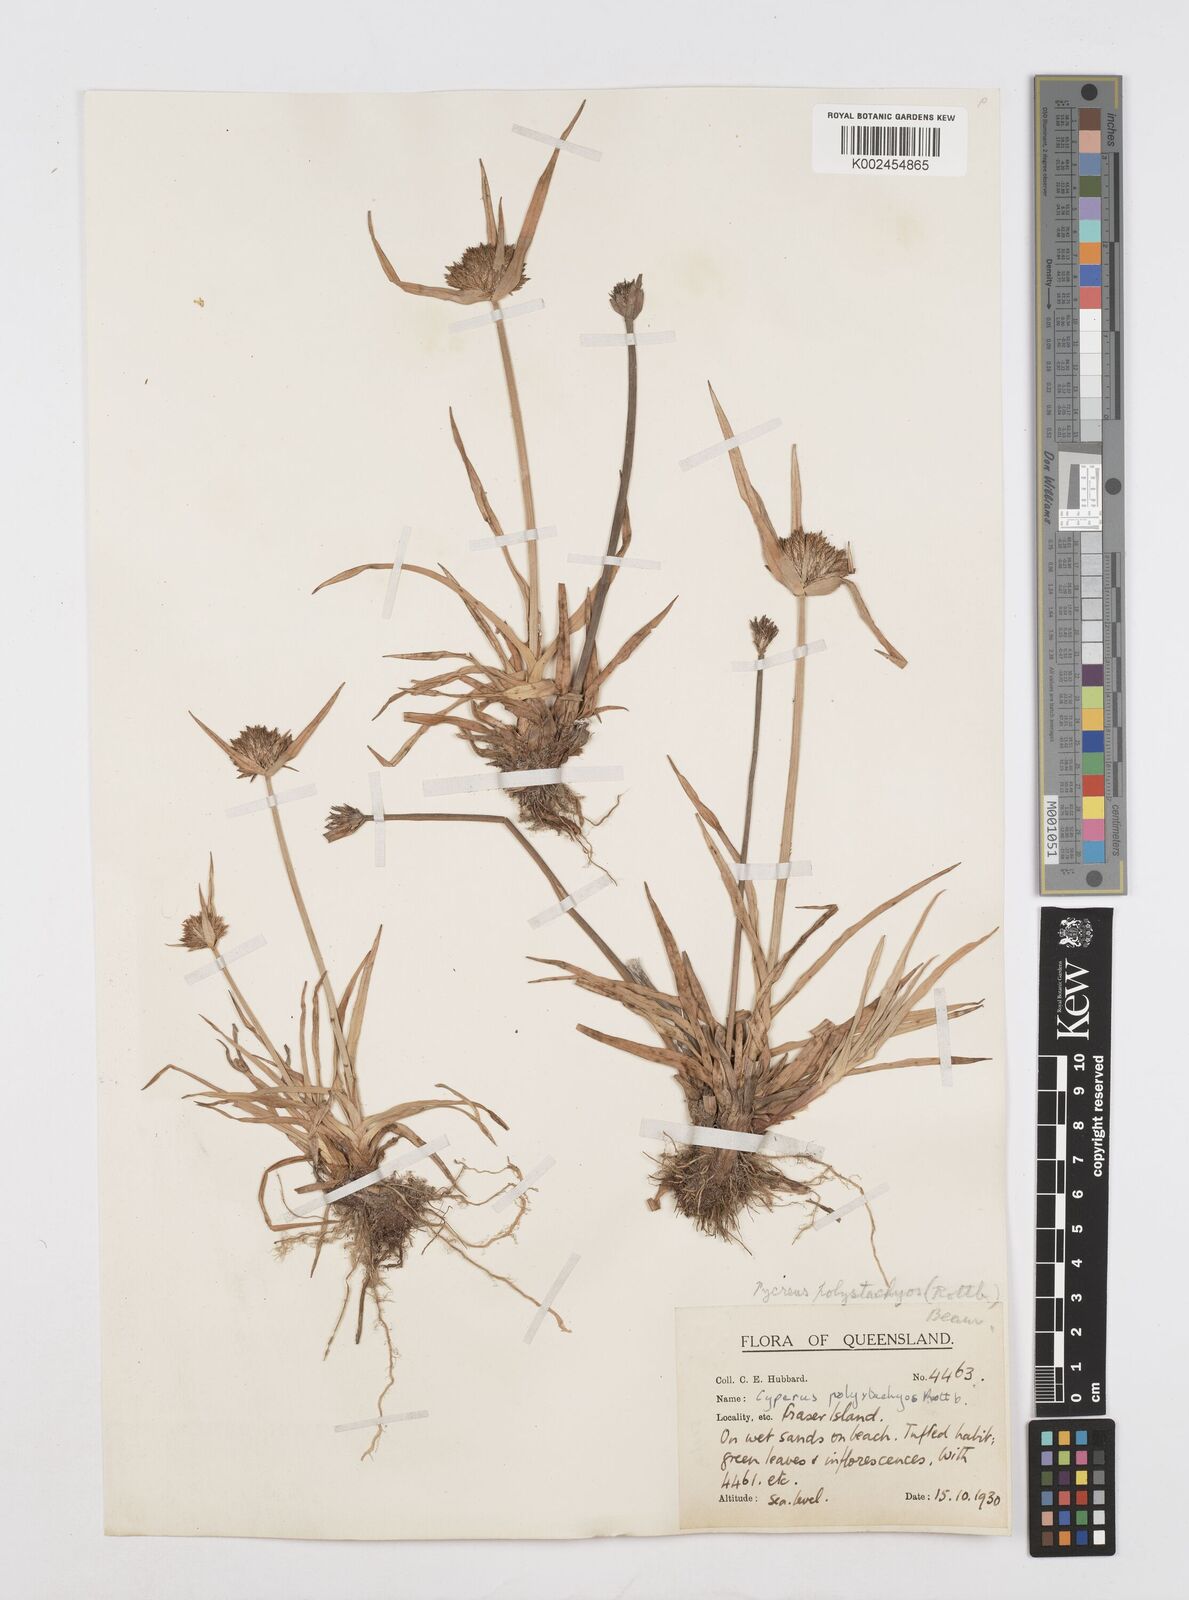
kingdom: Plantae
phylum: Tracheophyta
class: Liliopsida
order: Poales
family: Cyperaceae
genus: Cyperus
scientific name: Cyperus polystachyos
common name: Bunchy flat sedge
